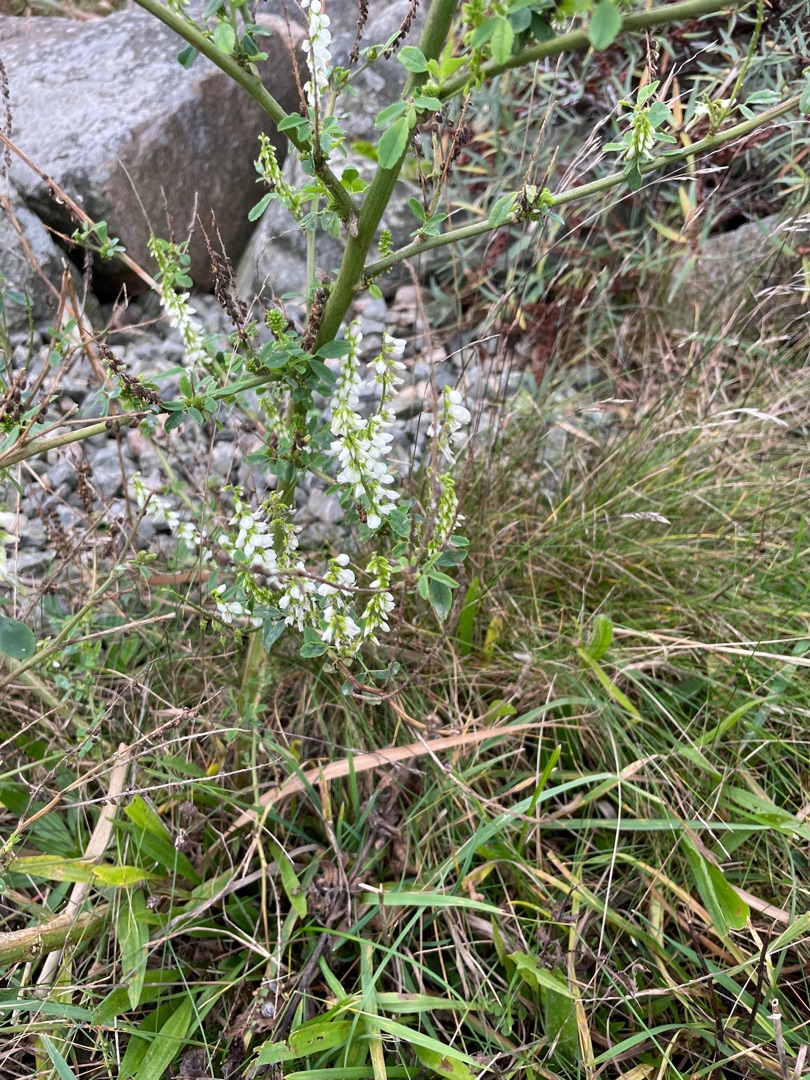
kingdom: Plantae
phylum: Tracheophyta
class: Magnoliopsida
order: Fabales
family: Fabaceae
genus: Melilotus
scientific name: Melilotus albus
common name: Hvid stenkløver
